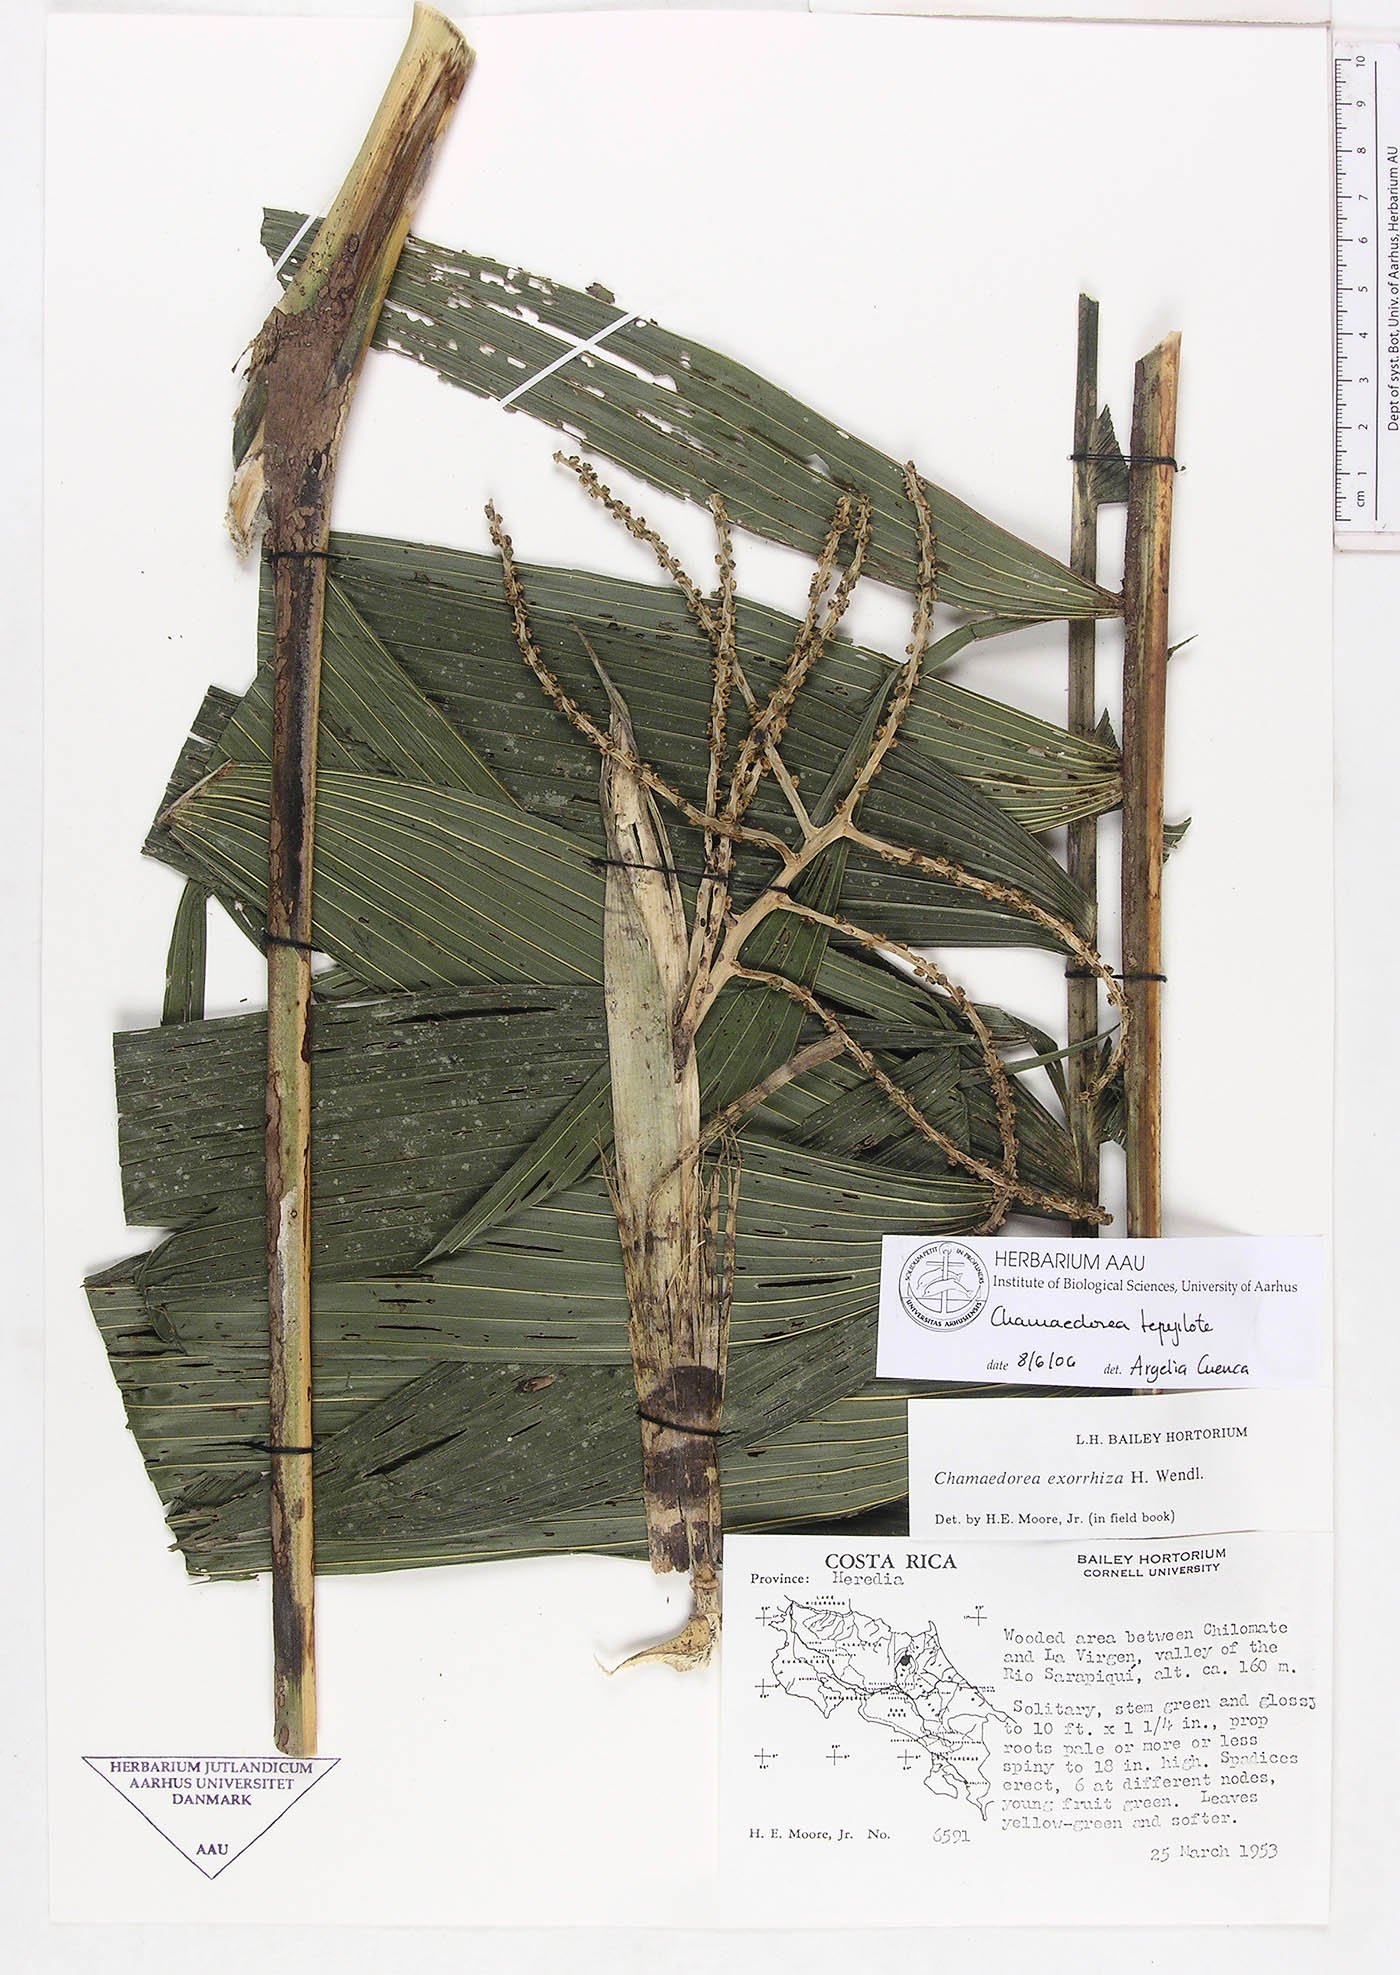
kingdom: Plantae
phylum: Tracheophyta
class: Liliopsida
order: Arecales
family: Arecaceae
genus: Chamaedorea
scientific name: Chamaedorea tepejilote
